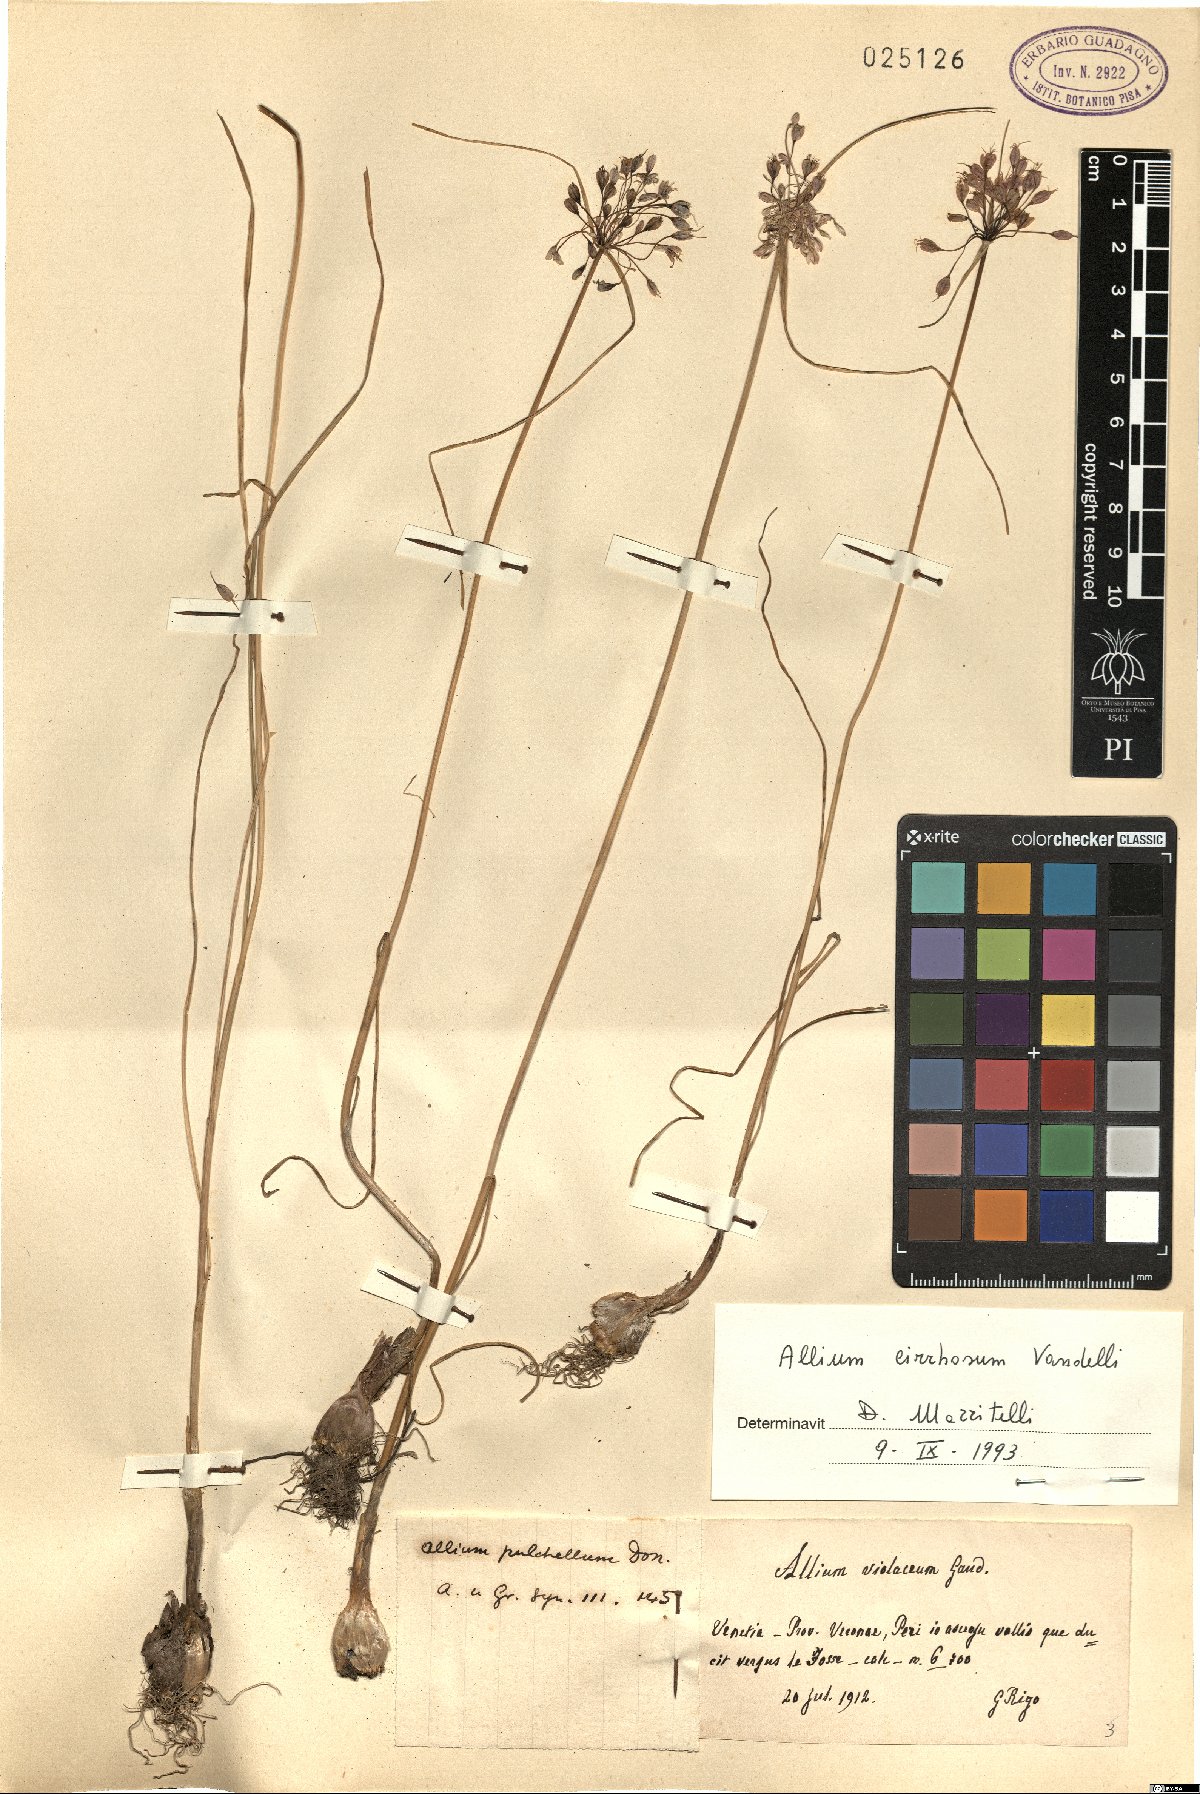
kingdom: Plantae
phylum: Tracheophyta
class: Liliopsida
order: Asparagales
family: Amaryllidaceae
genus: Allium
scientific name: Allium coloratum
